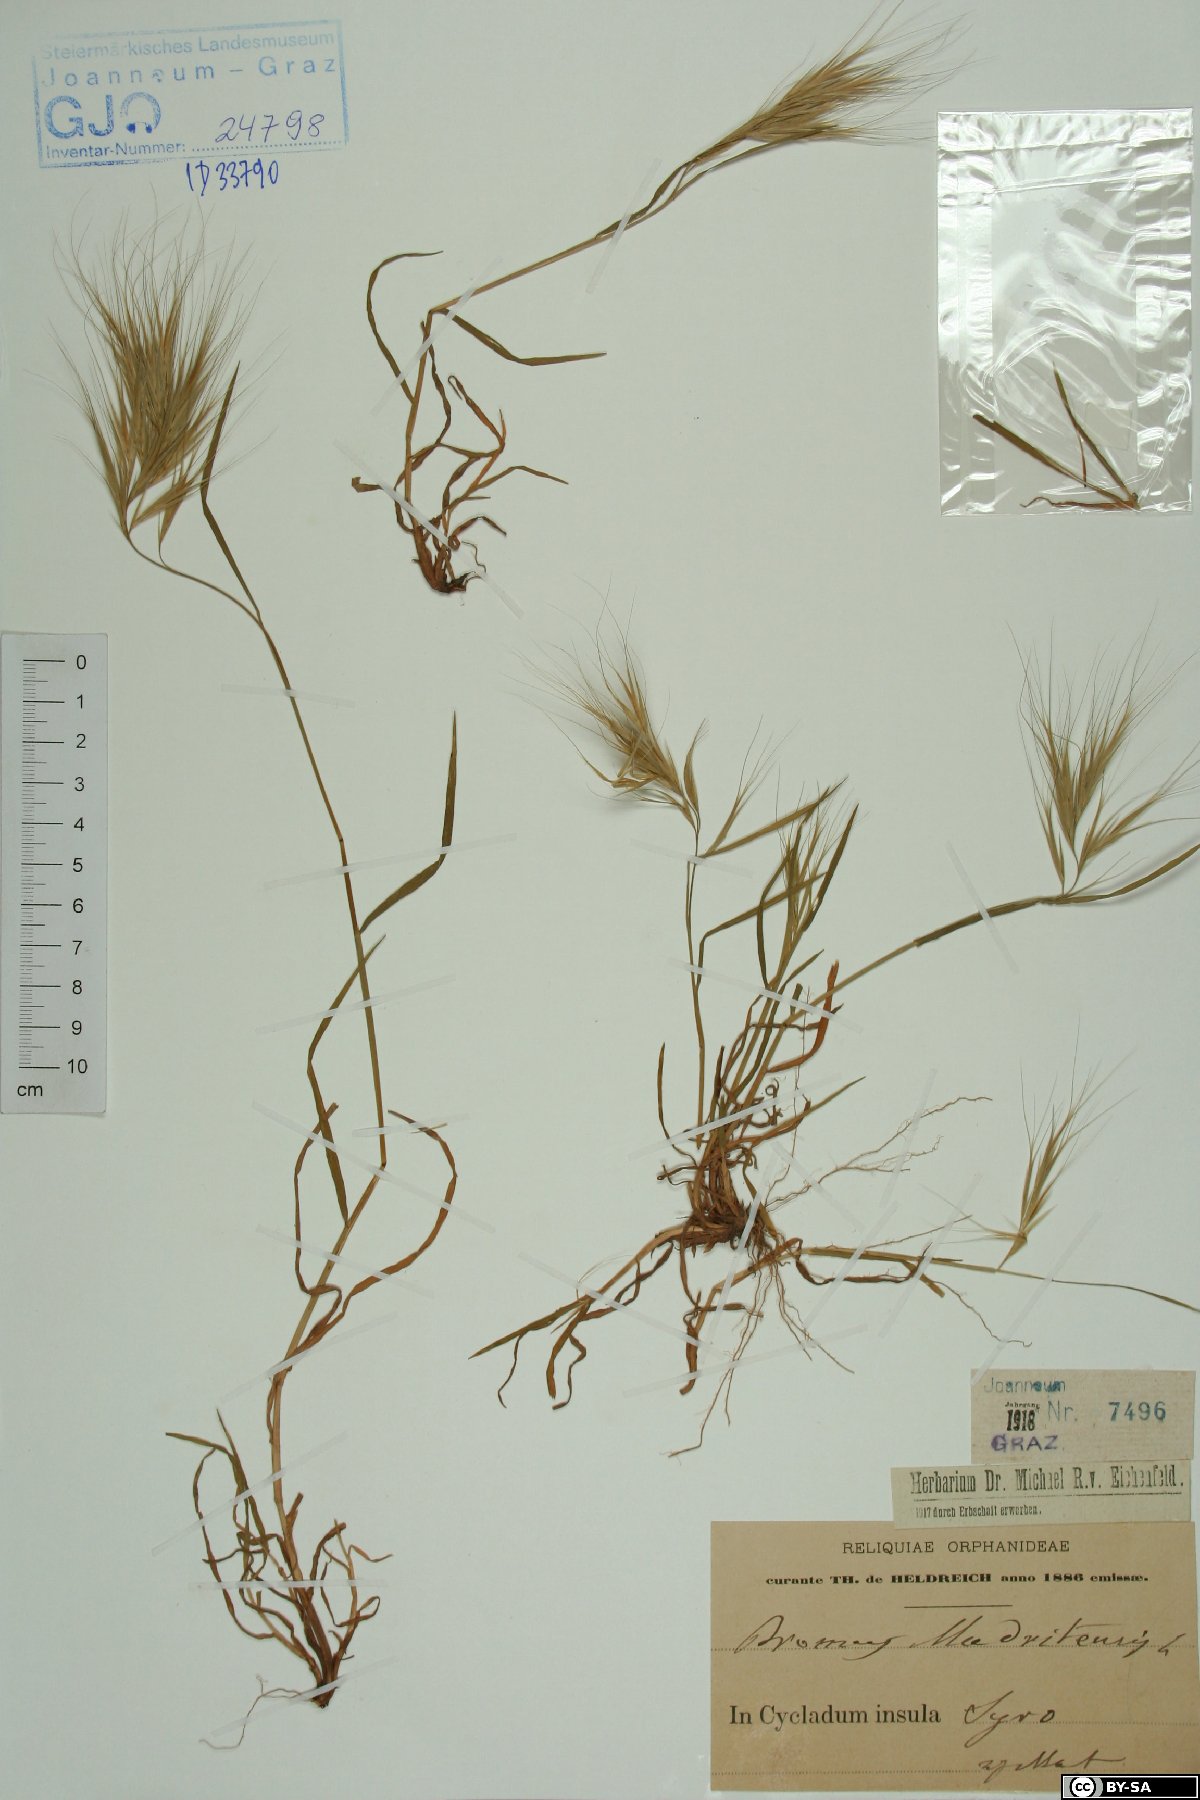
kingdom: Plantae
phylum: Tracheophyta
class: Liliopsida
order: Poales
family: Poaceae
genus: Bromus
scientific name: Bromus madritensis
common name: Compact brome
